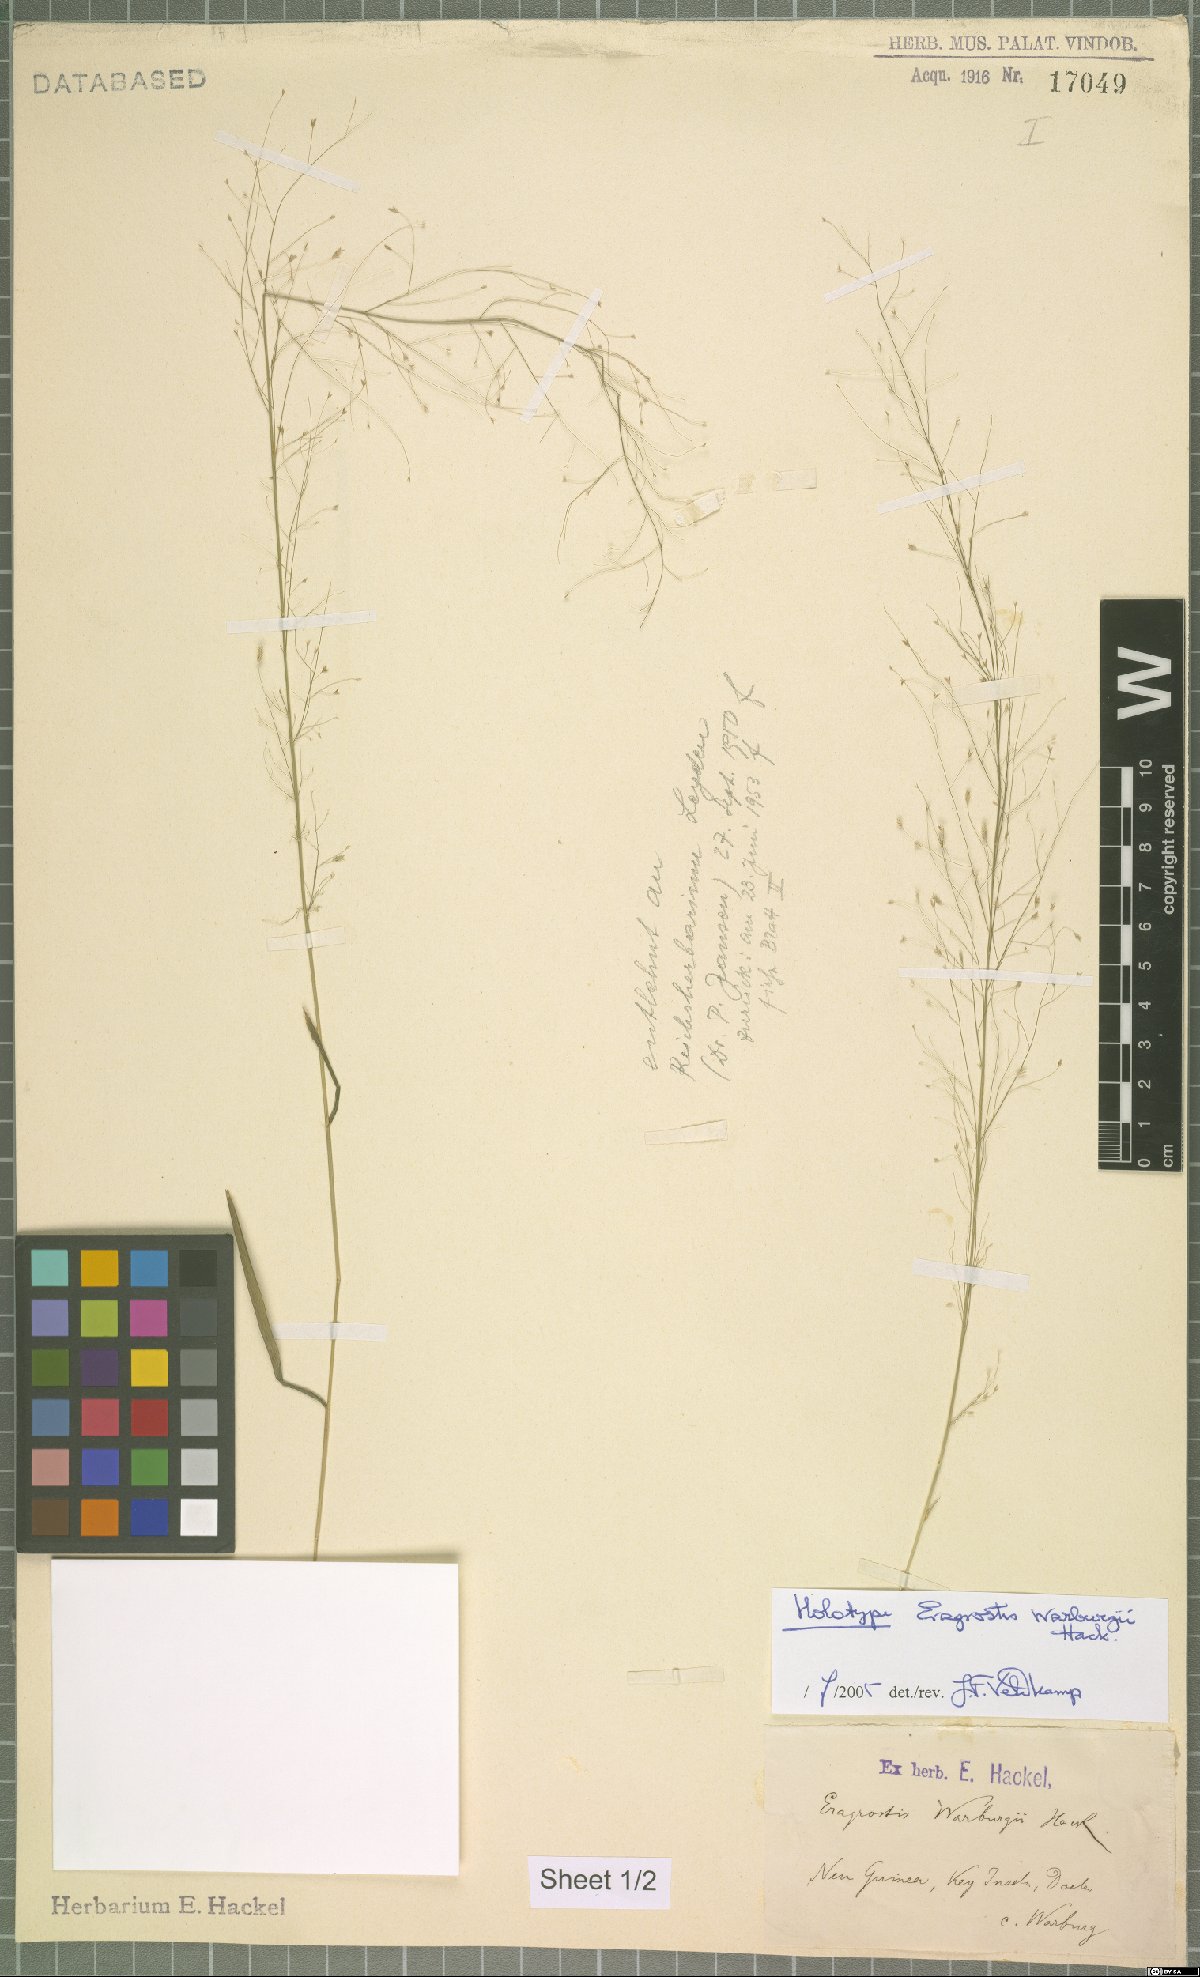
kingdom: Plantae
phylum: Tracheophyta
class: Liliopsida
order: Poales
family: Poaceae
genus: Eragrostis
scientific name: Eragrostis warburgii
